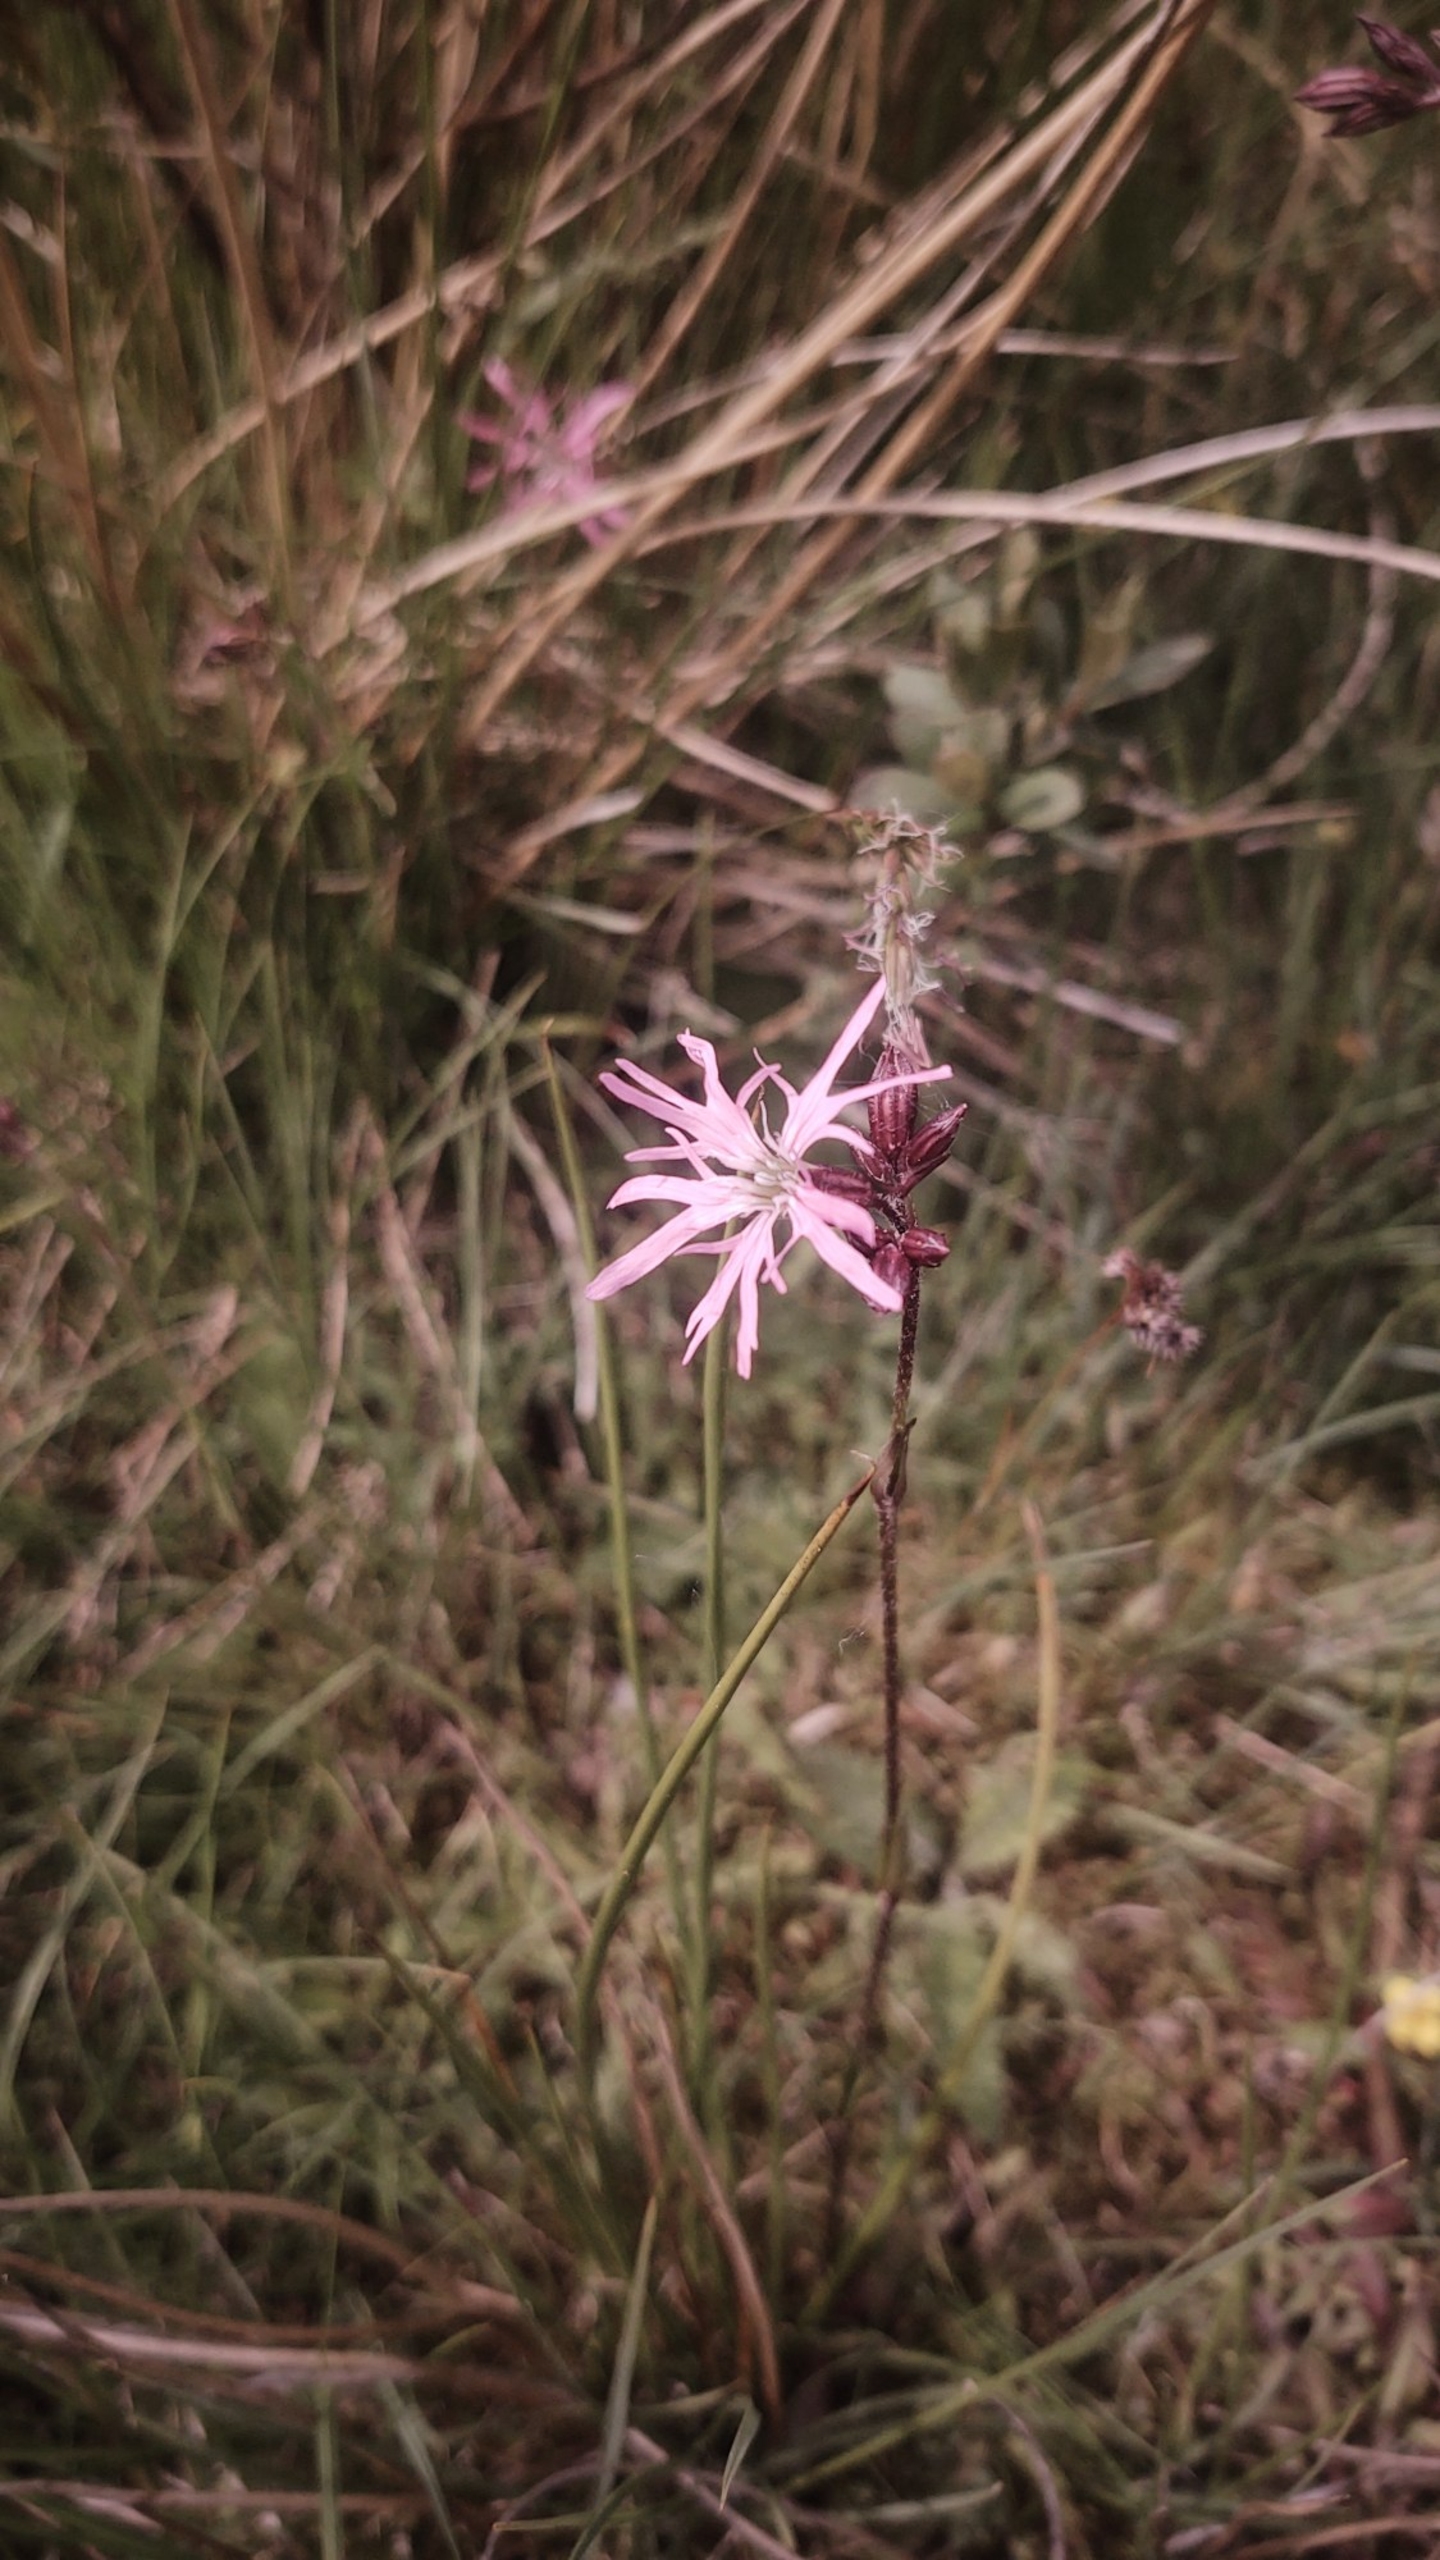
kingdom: Plantae
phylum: Tracheophyta
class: Magnoliopsida
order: Caryophyllales
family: Caryophyllaceae
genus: Silene
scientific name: Silene flos-cuculi
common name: Trævlekrone
